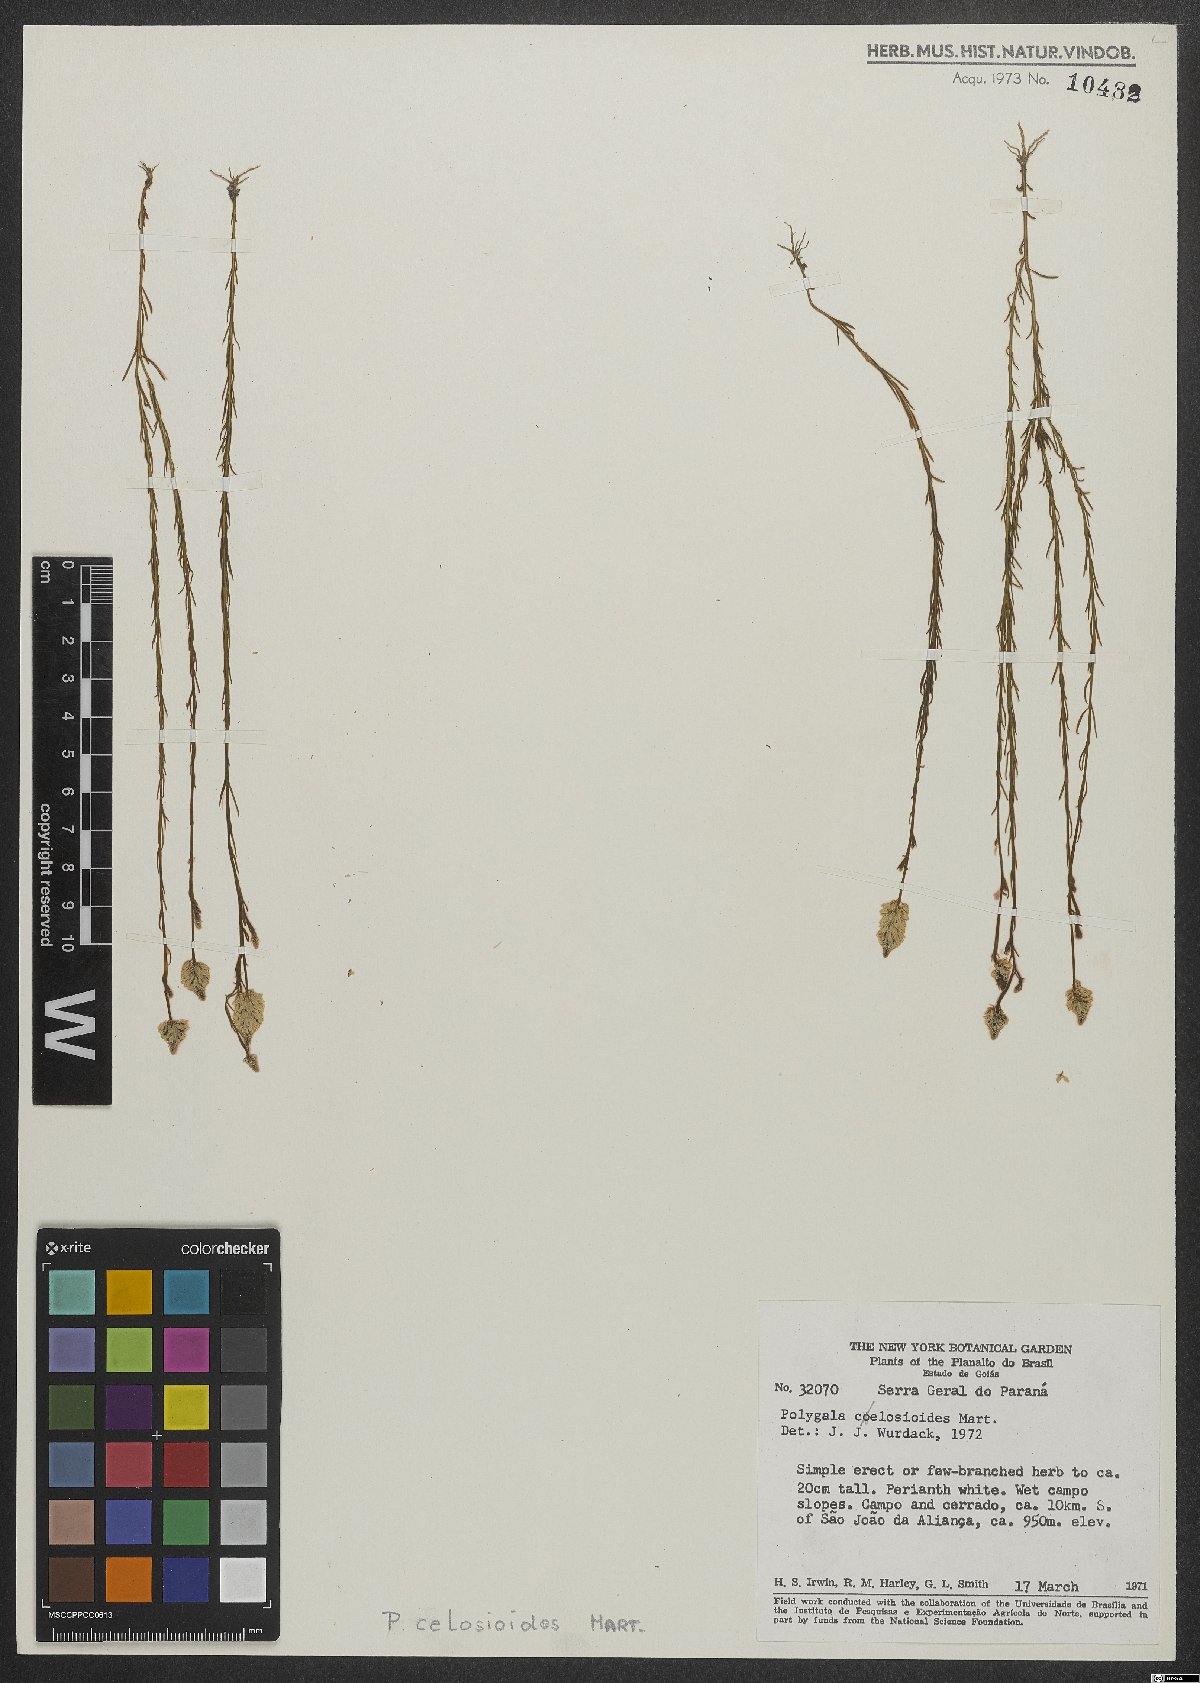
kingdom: Plantae
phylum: Tracheophyta
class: Magnoliopsida
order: Fabales
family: Polygalaceae
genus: Polygala
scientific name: Polygala celosioides
